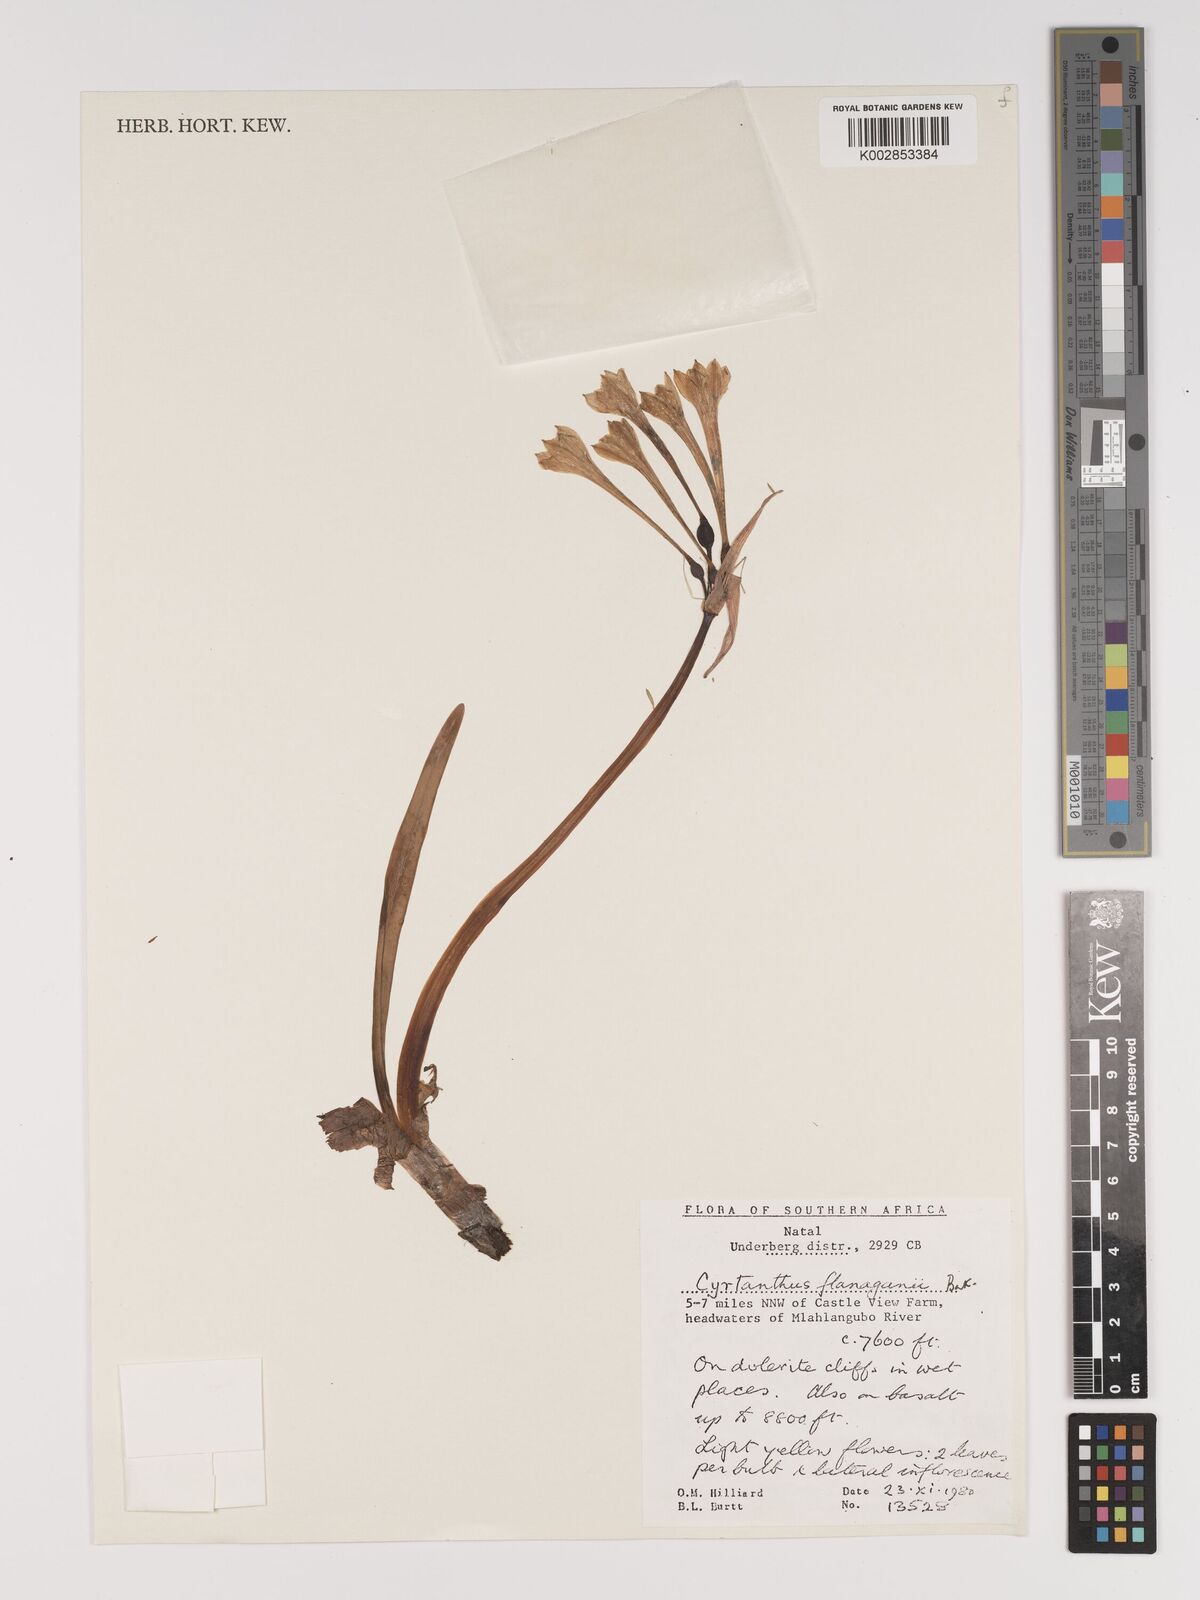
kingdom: Plantae
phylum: Tracheophyta
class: Liliopsida
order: Asparagales
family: Amaryllidaceae
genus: Cyrtanthus
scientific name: Cyrtanthus flanaganii
